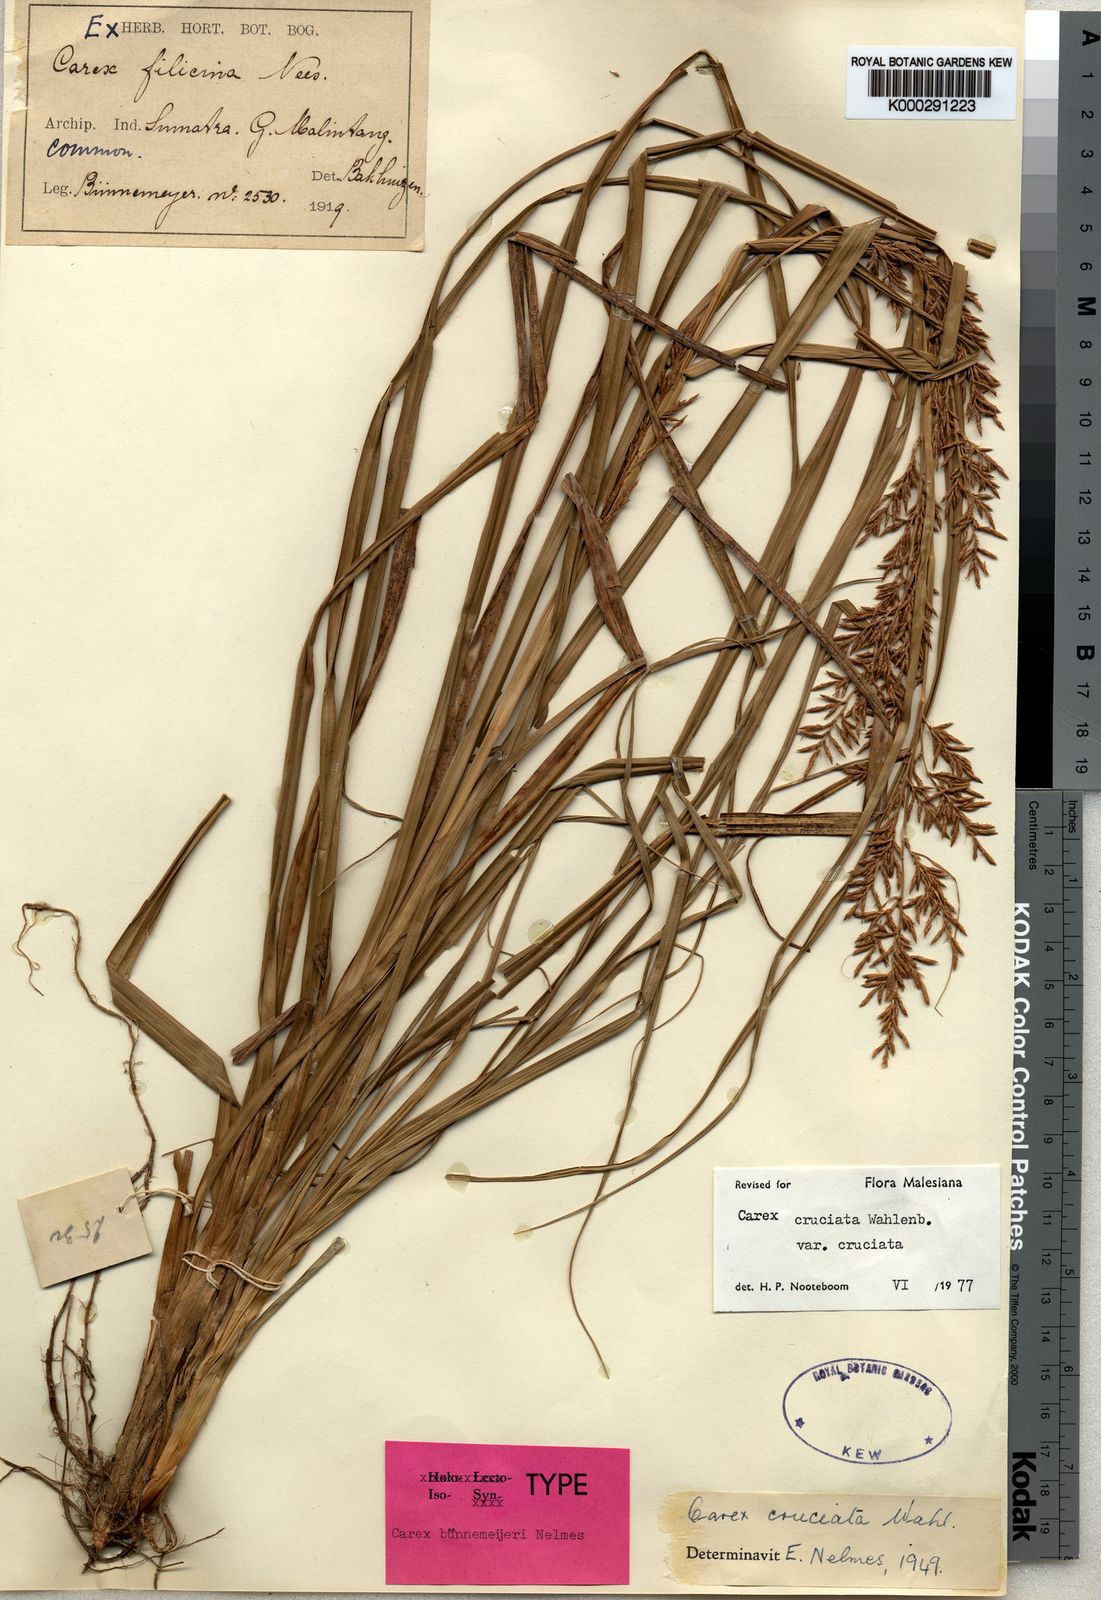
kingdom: Plantae
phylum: Tracheophyta
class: Liliopsida
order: Poales
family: Cyperaceae
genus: Carex
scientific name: Carex rafflesiana
